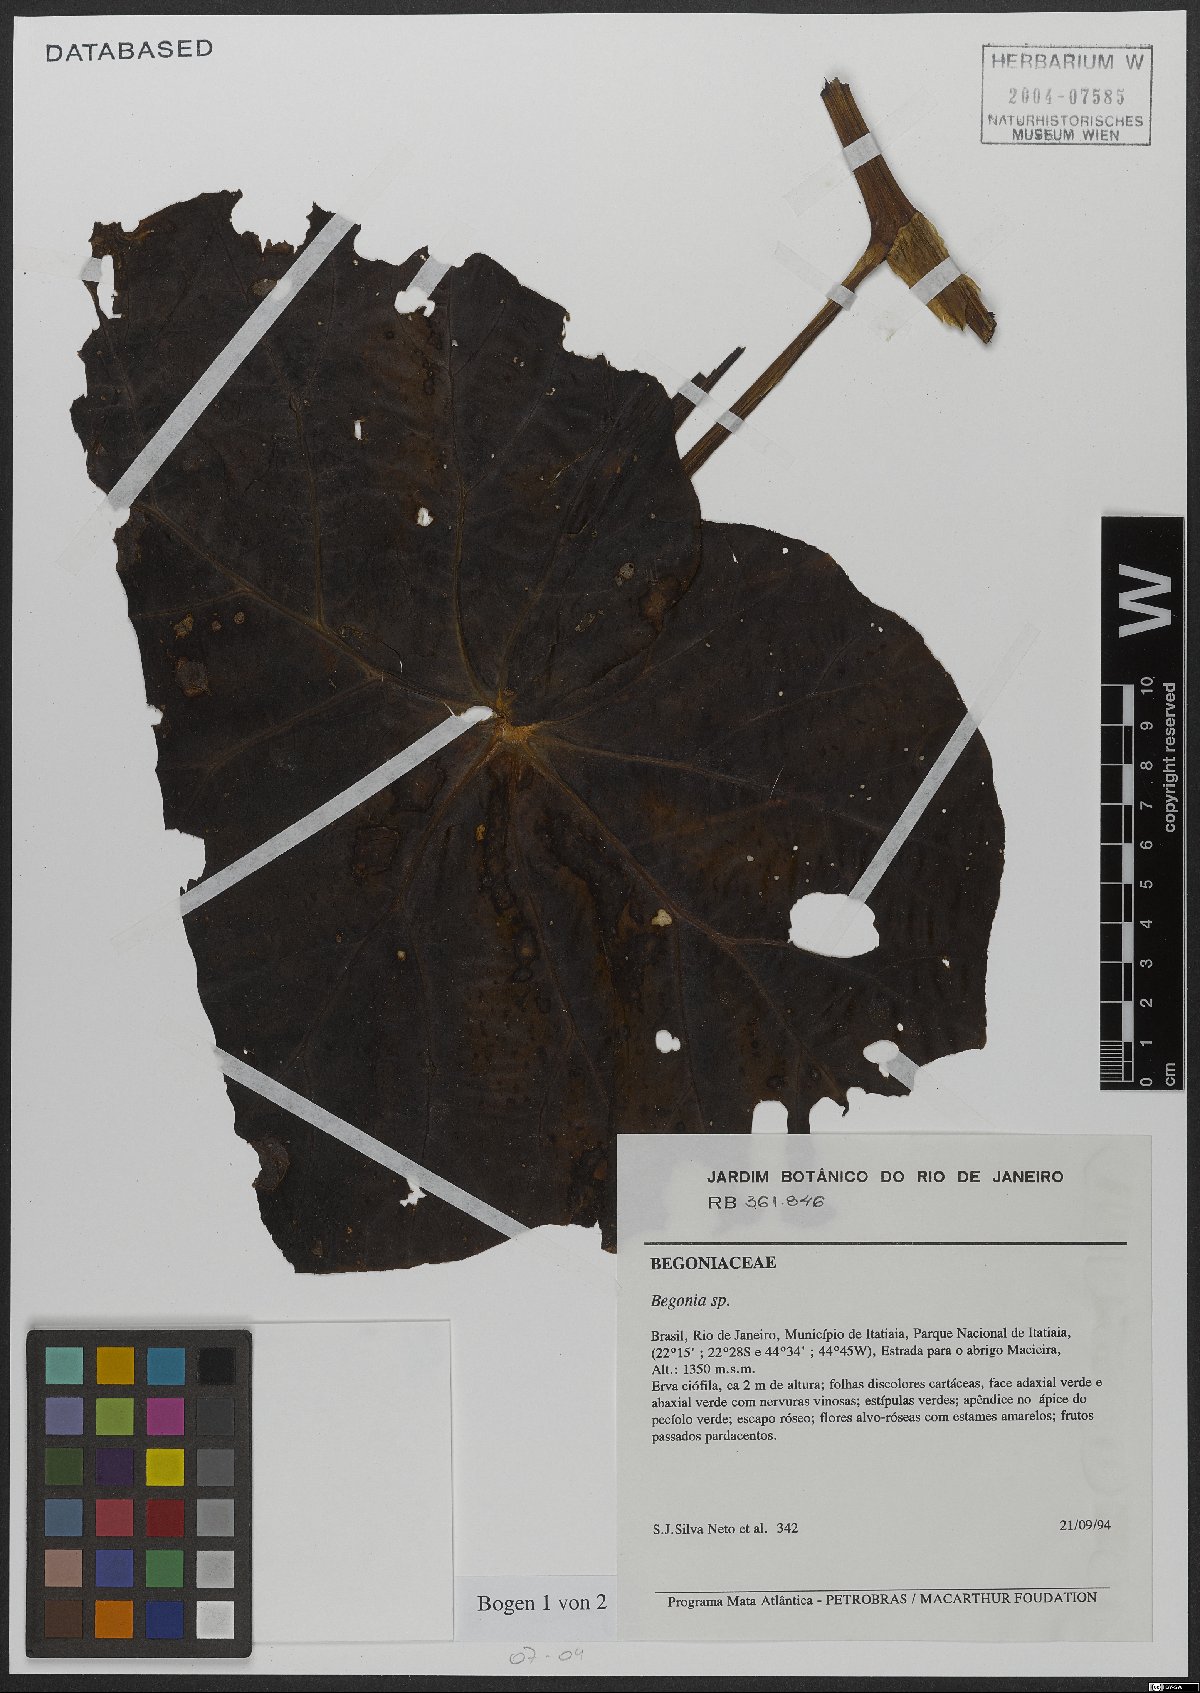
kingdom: Plantae
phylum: Tracheophyta
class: Magnoliopsida
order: Cucurbitales
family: Begoniaceae
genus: Begonia
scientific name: Begonia
